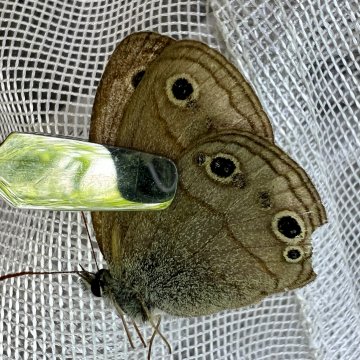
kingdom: Animalia
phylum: Arthropoda
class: Insecta
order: Lepidoptera
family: Nymphalidae
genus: Euptychia
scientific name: Euptychia cymela
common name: Little Wood Satyr
